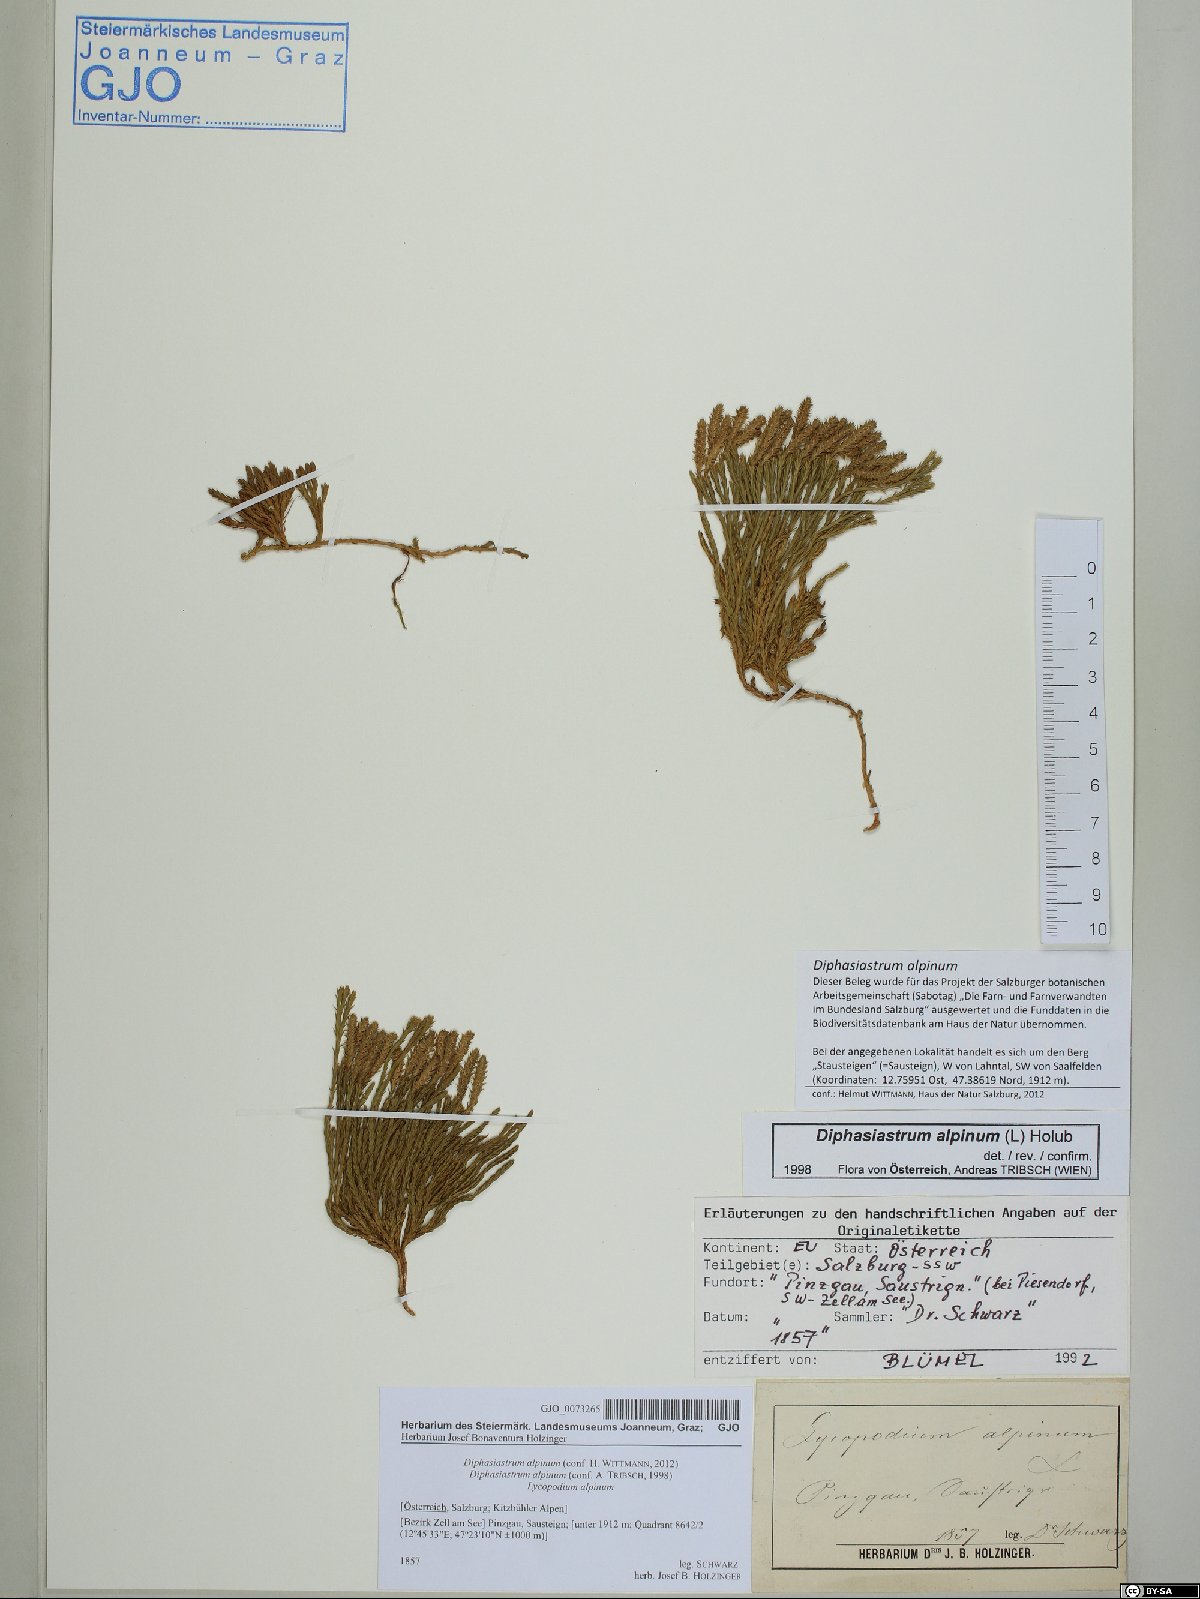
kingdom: Plantae
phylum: Tracheophyta
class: Lycopodiopsida
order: Lycopodiales
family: Lycopodiaceae
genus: Diphasiastrum
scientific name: Diphasiastrum alpinum
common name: Alpine clubmoss
